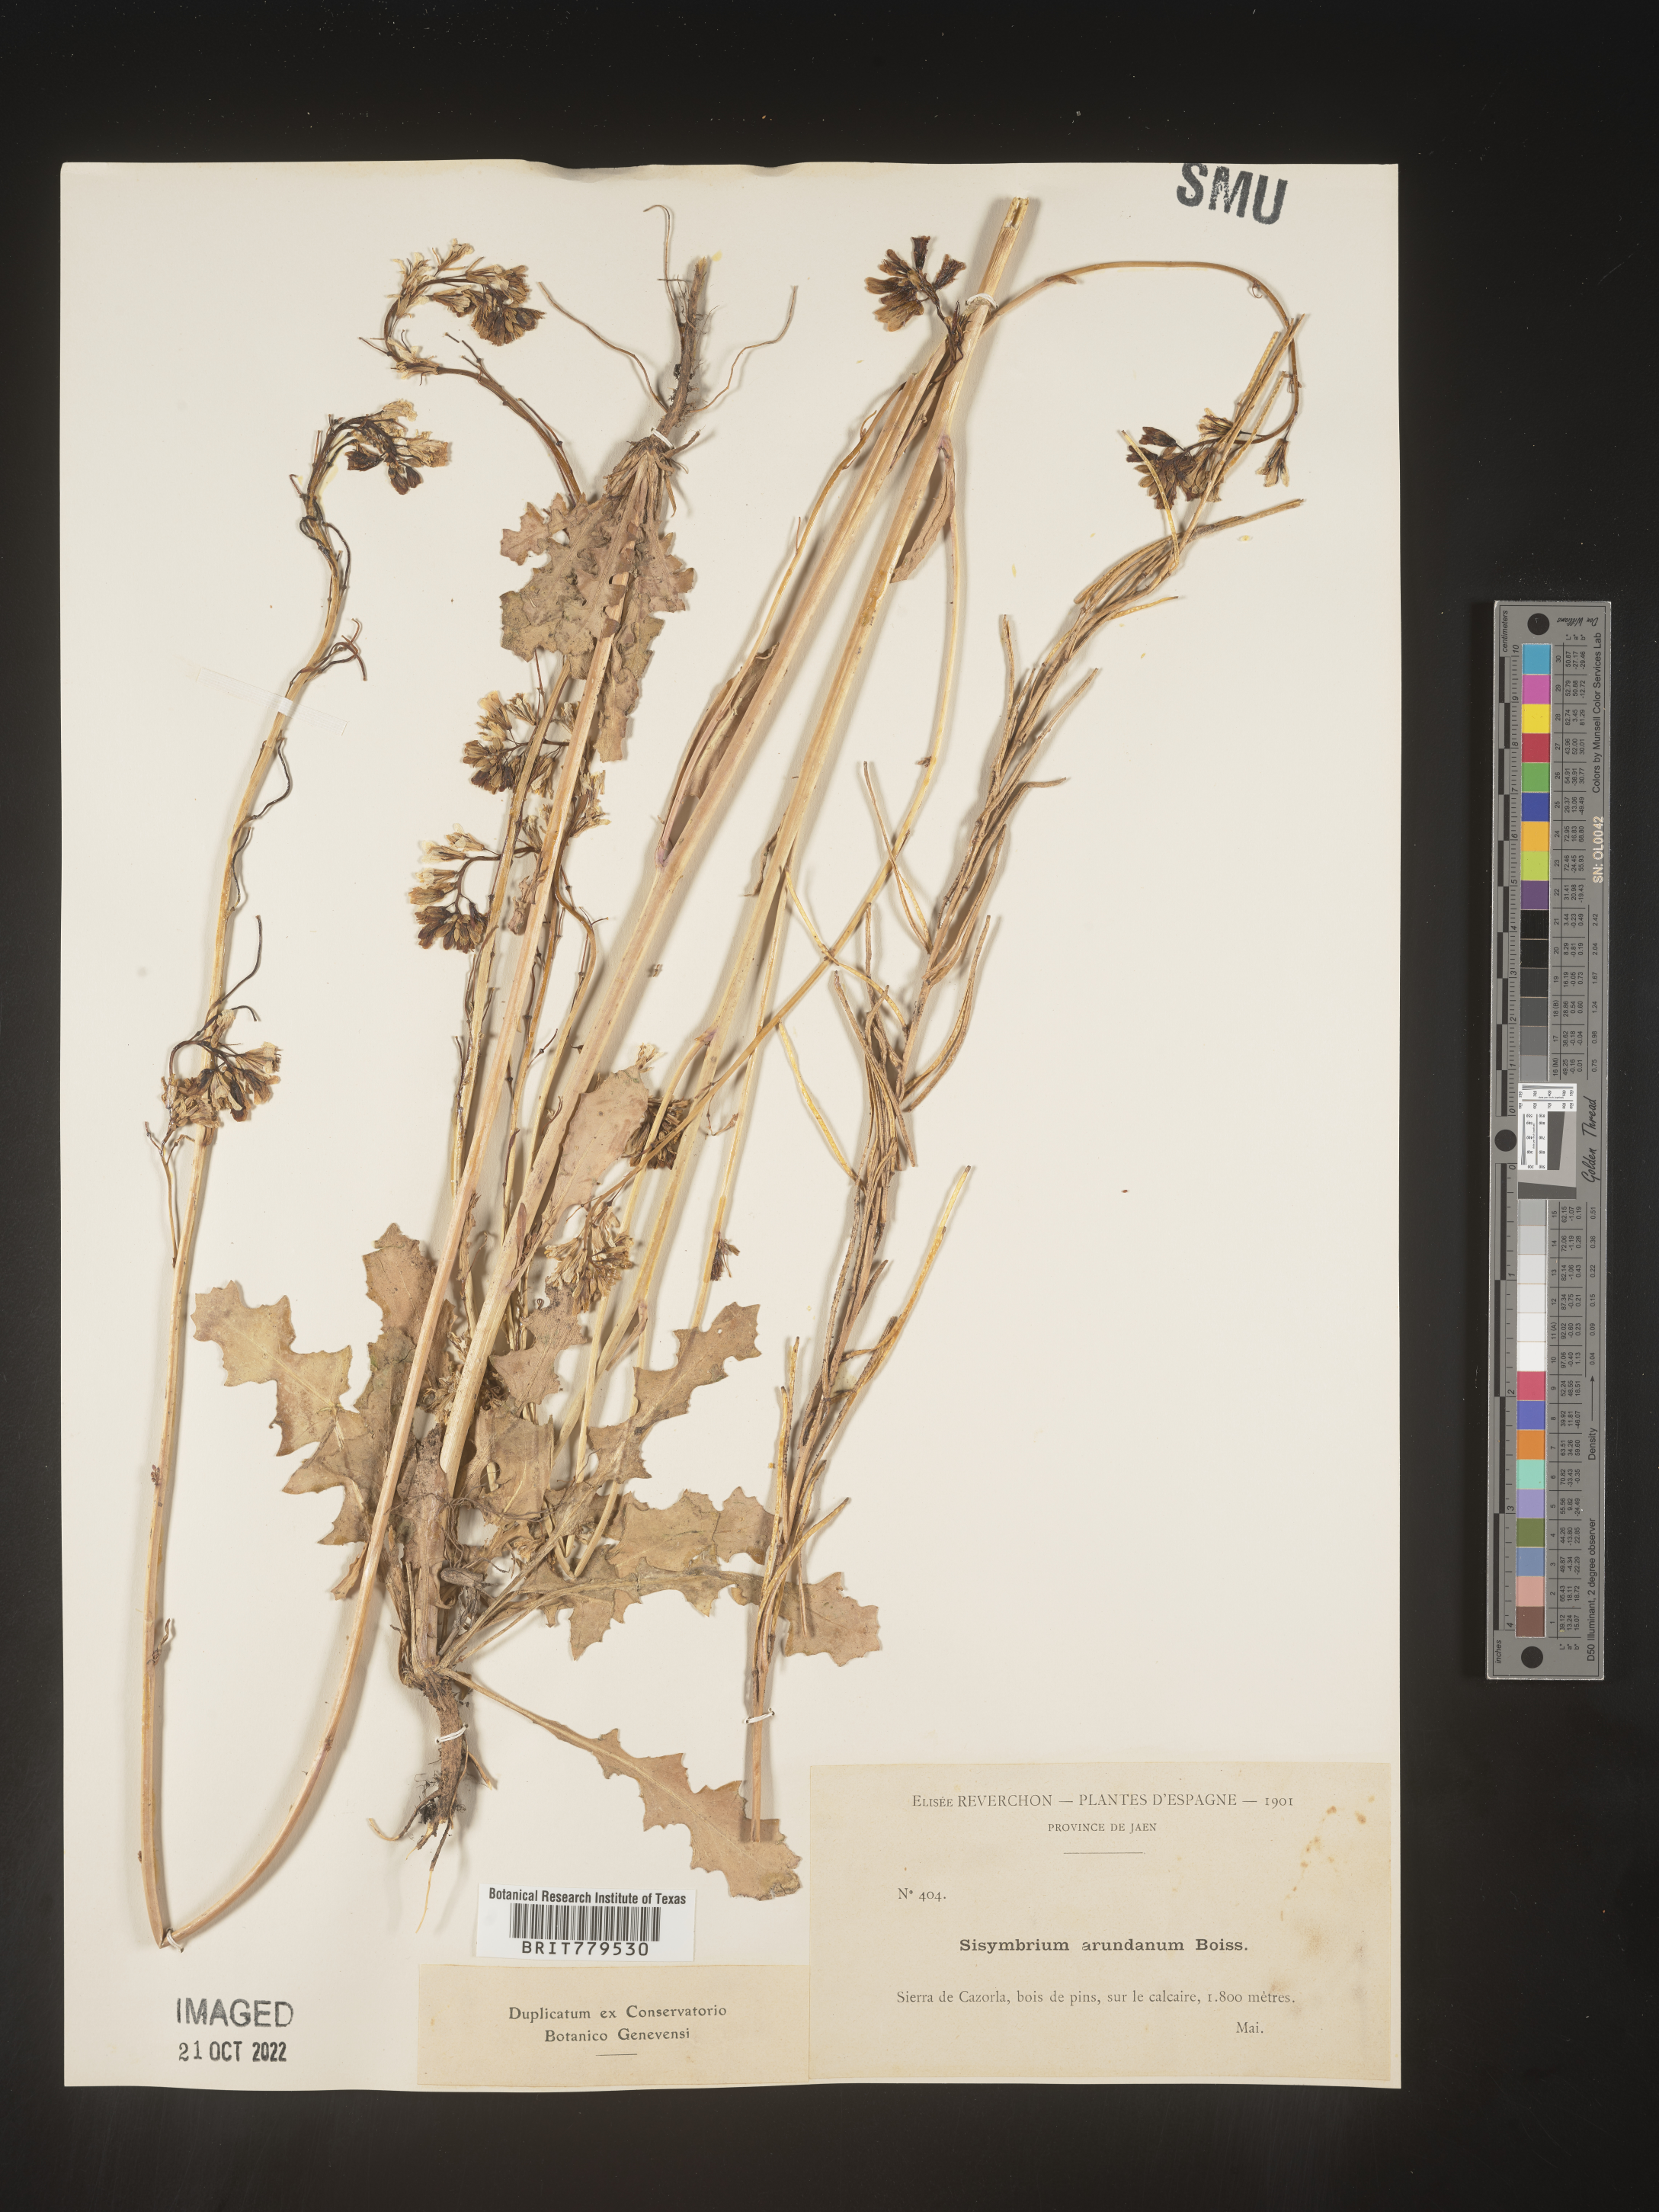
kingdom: Plantae
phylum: Tracheophyta
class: Magnoliopsida
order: Brassicales
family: Brassicaceae
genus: Sisymbrium
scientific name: Sisymbrium
